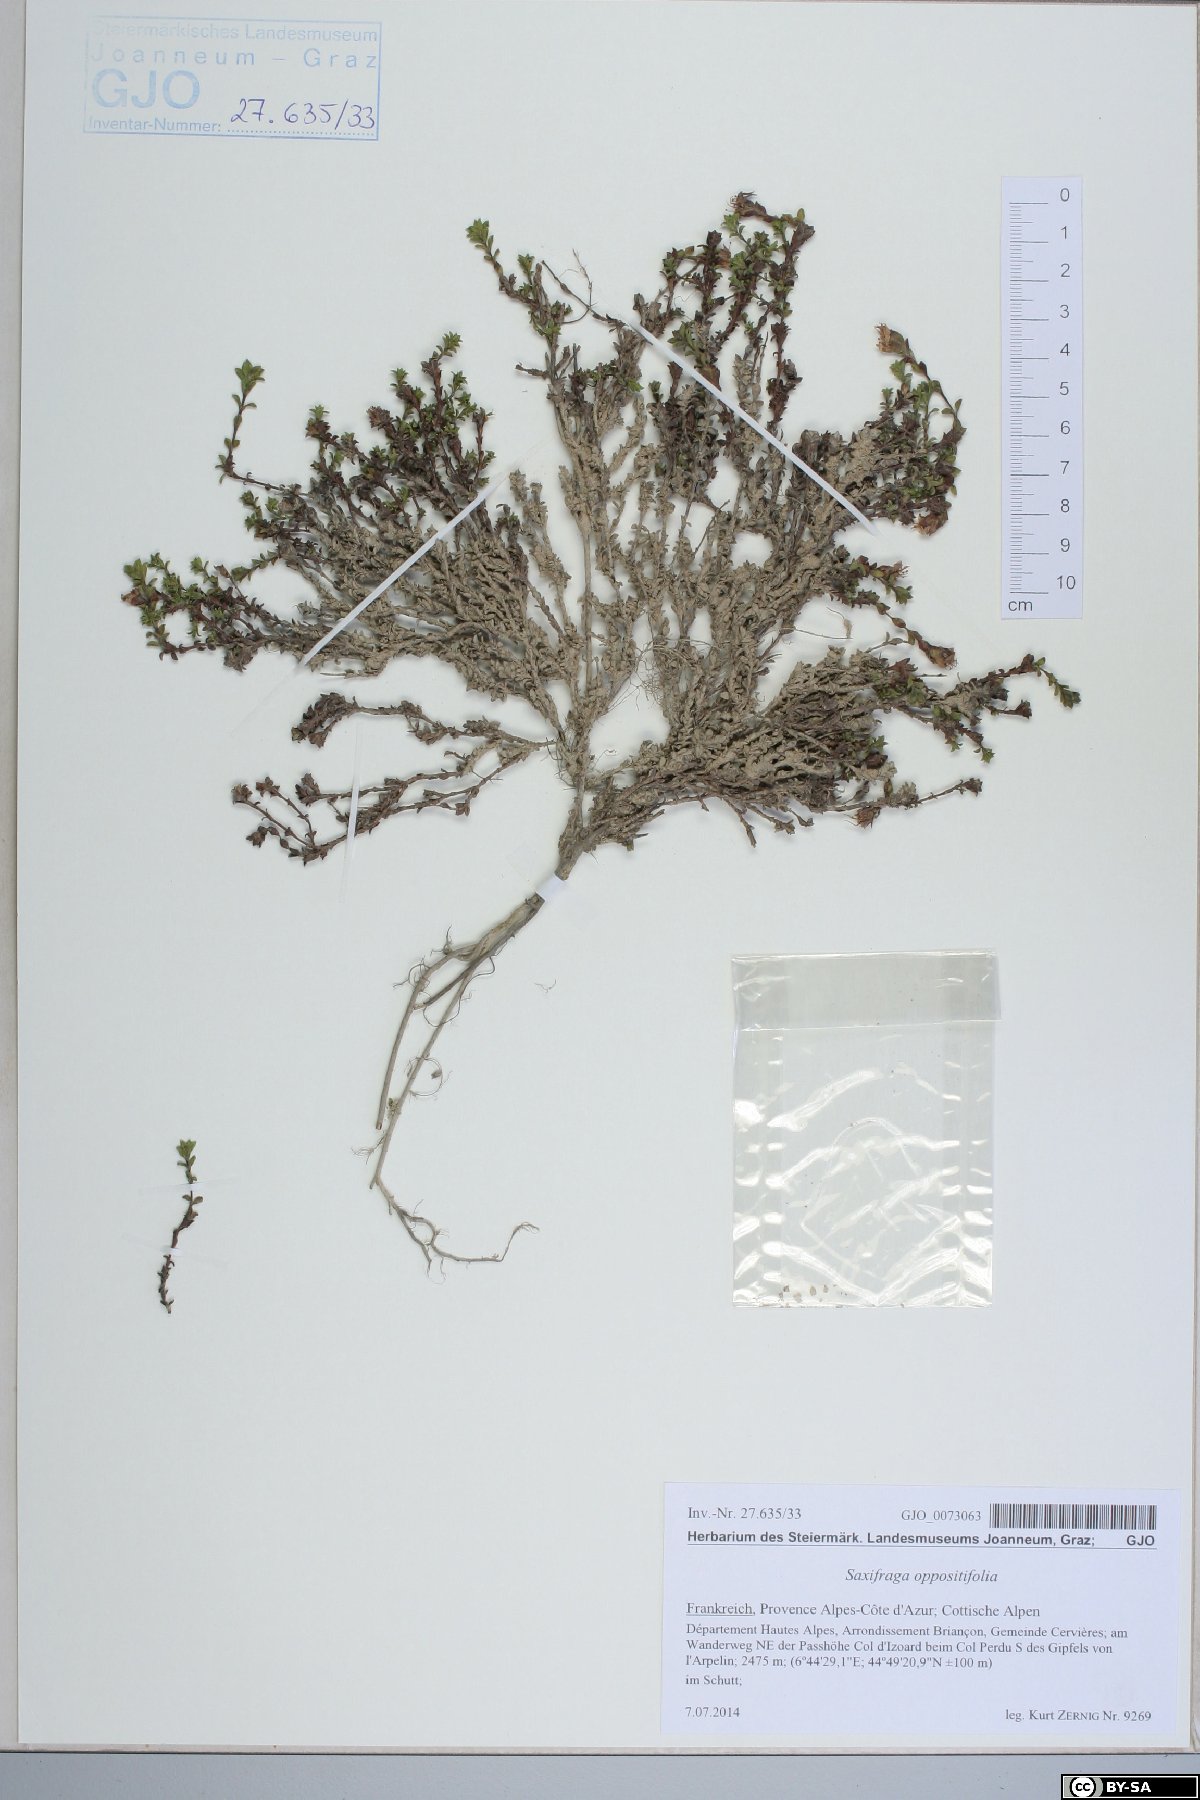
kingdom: Plantae
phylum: Tracheophyta
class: Magnoliopsida
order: Saxifragales
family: Saxifragaceae
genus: Saxifraga
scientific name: Saxifraga oppositifolia
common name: Purple saxifrage
